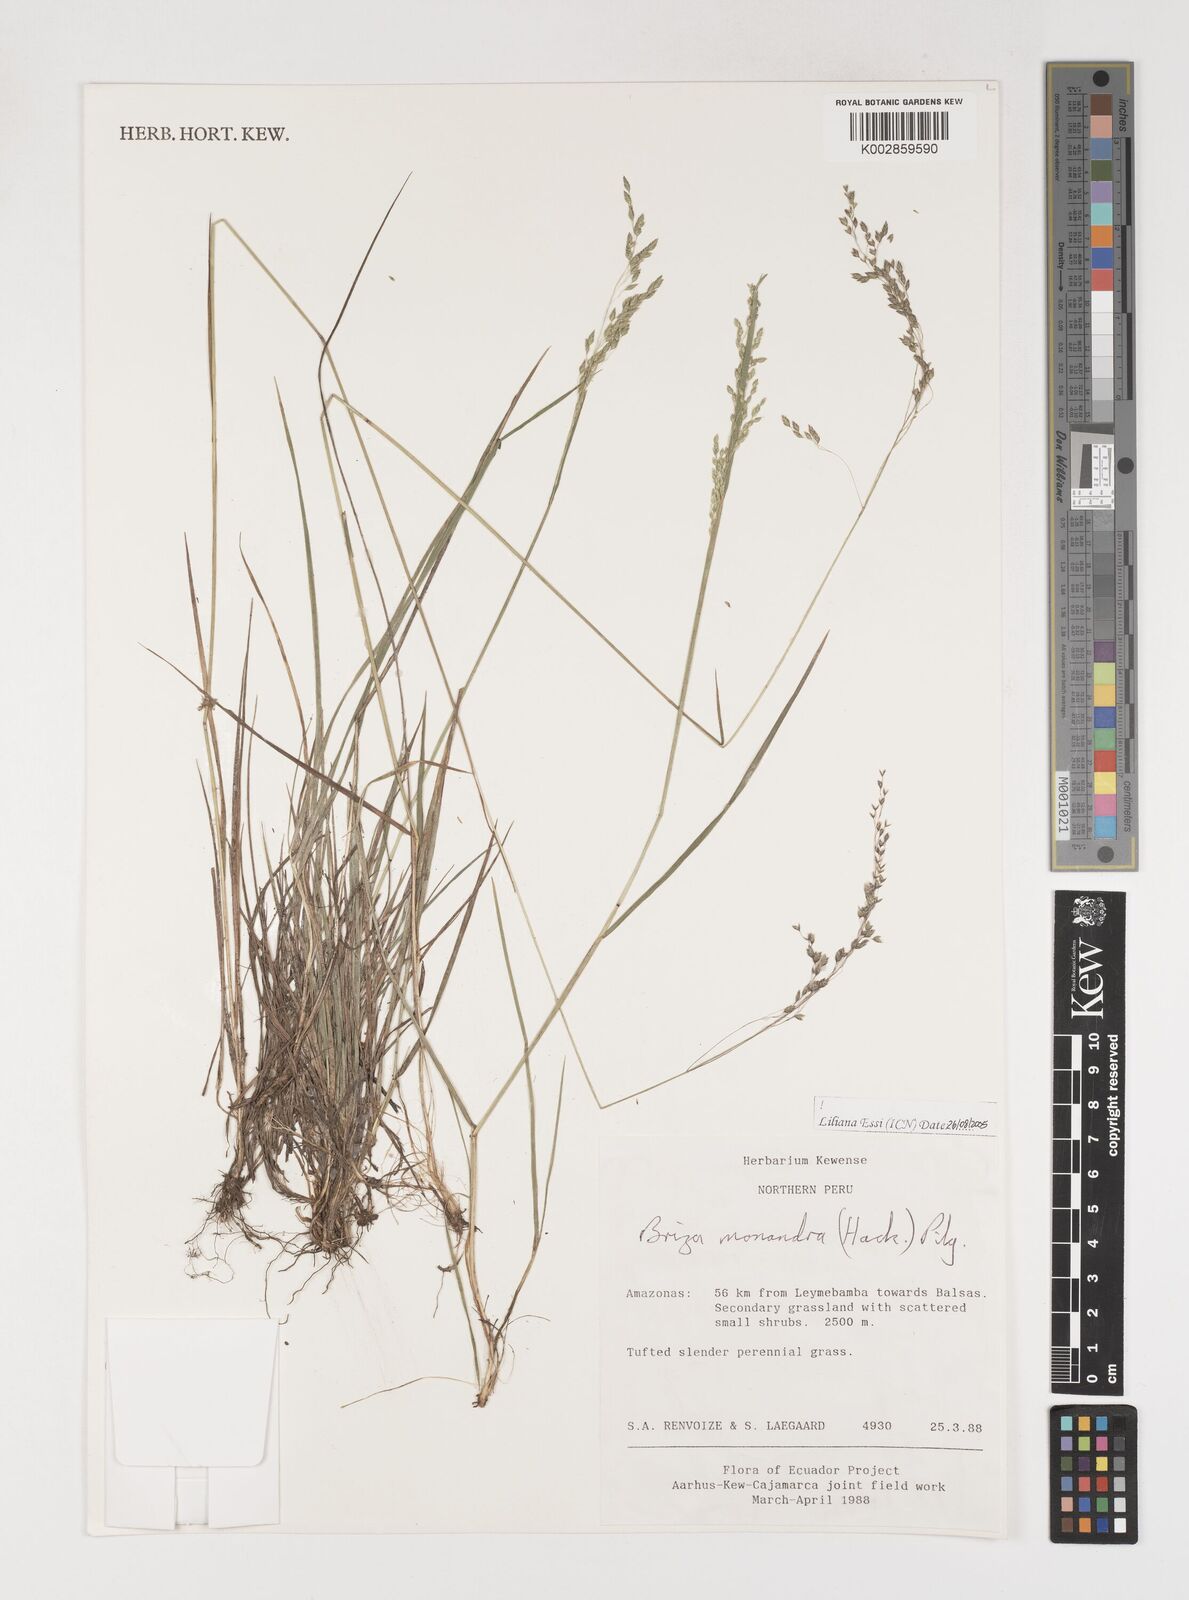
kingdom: Plantae
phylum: Tracheophyta
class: Liliopsida
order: Poales
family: Poaceae
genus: Poidium
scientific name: Poidium monandrum
